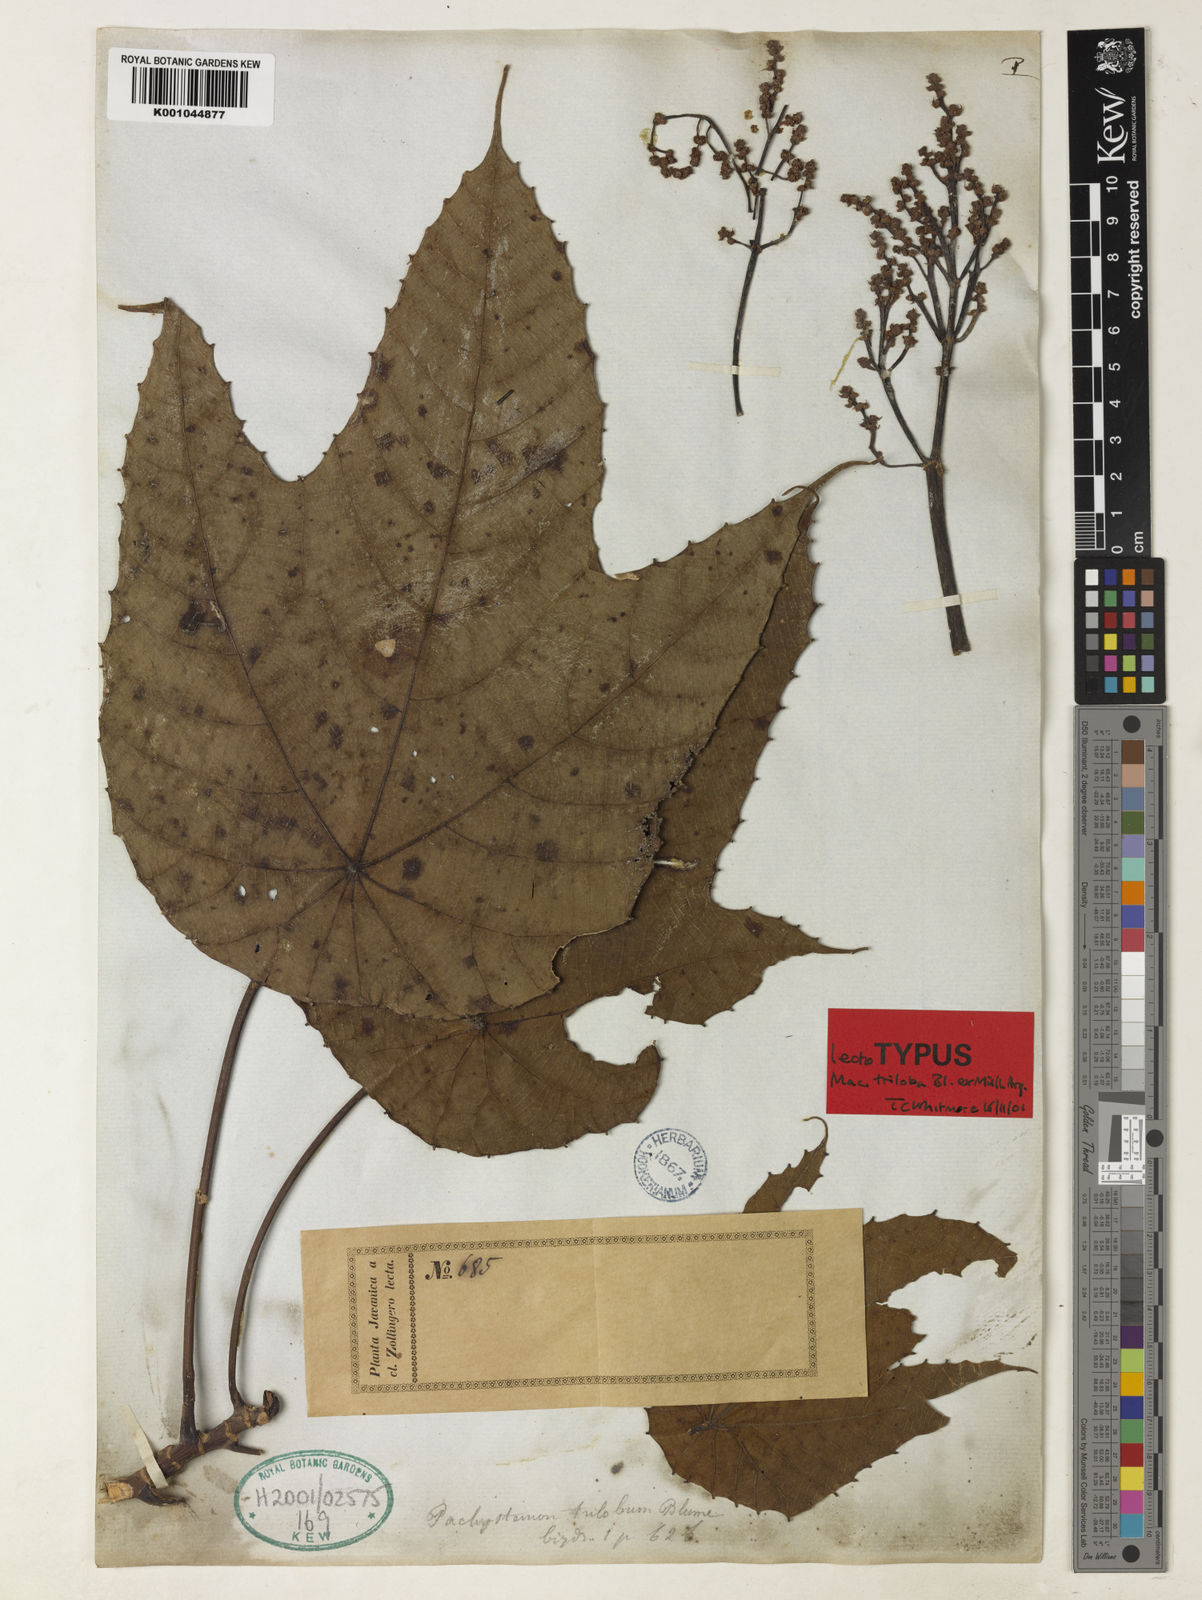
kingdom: Plantae
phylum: Tracheophyta
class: Magnoliopsida
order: Malpighiales
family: Euphorbiaceae
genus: Macaranga
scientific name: Macaranga
